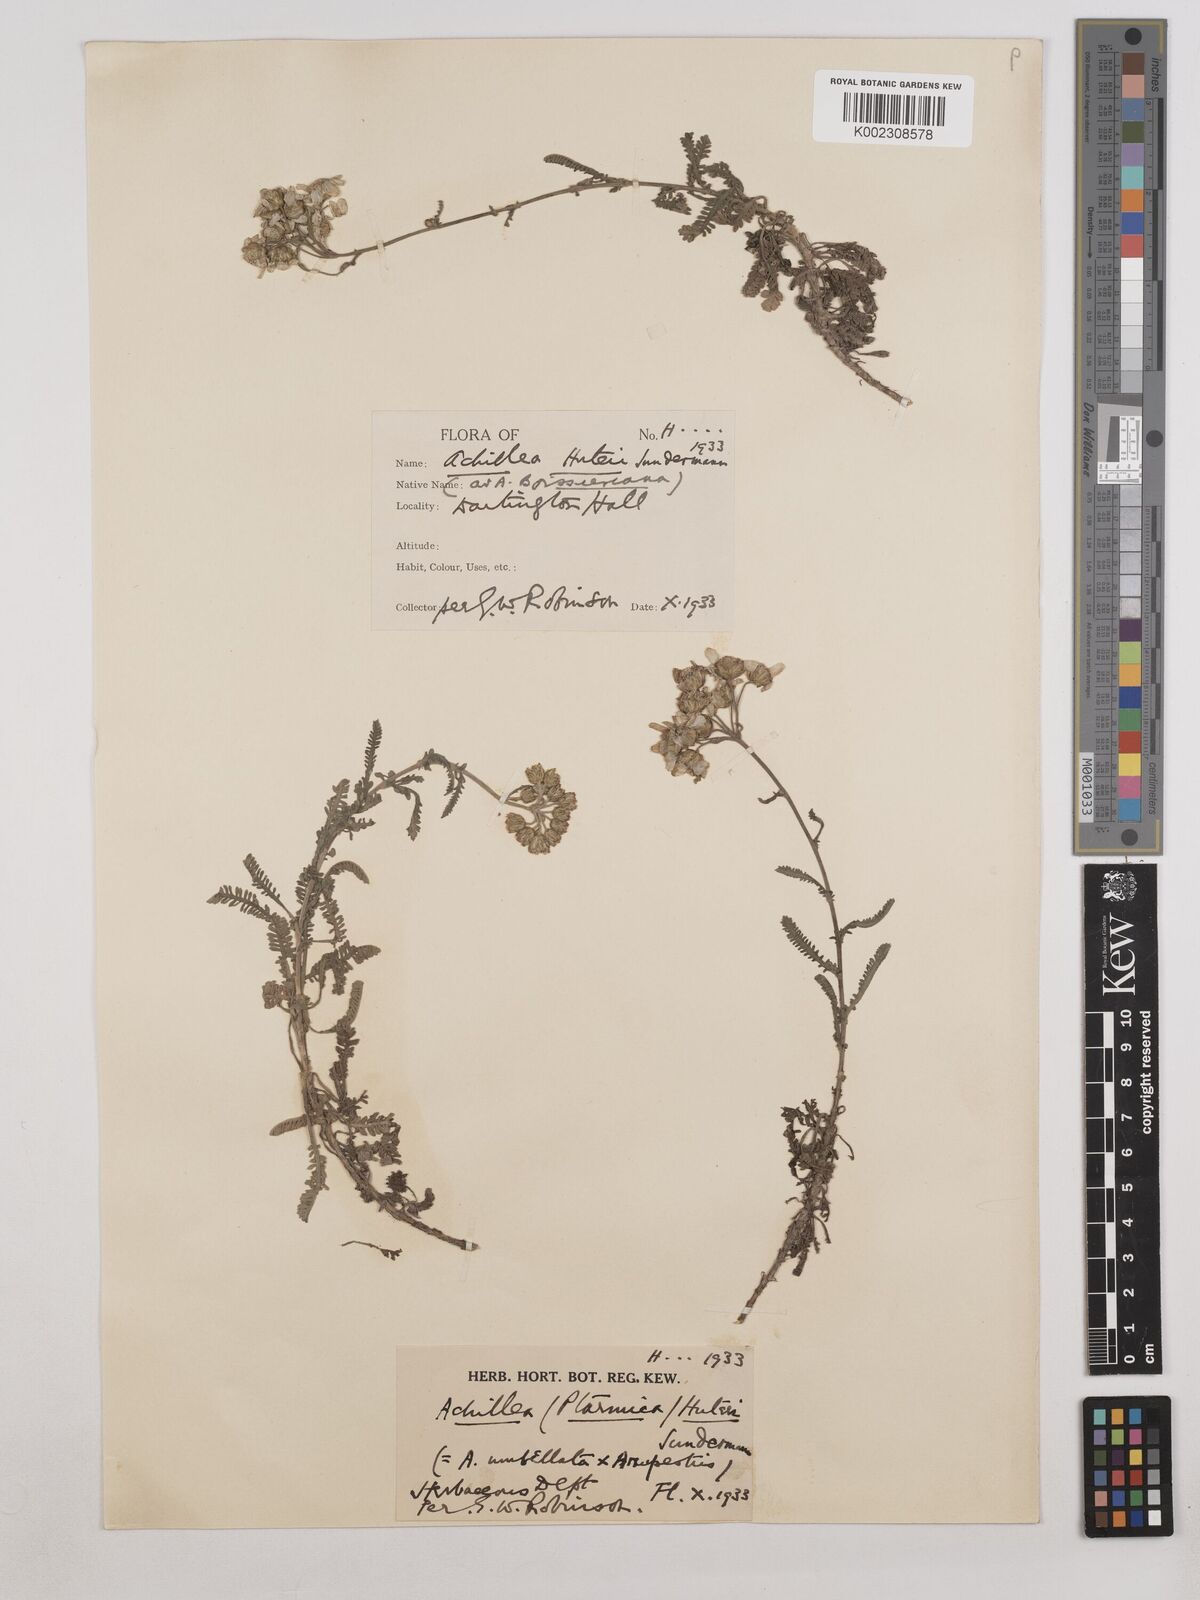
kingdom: Plantae
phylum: Tracheophyta
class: Magnoliopsida
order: Asterales
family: Asteraceae
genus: Achillea
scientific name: Achillea huteri
